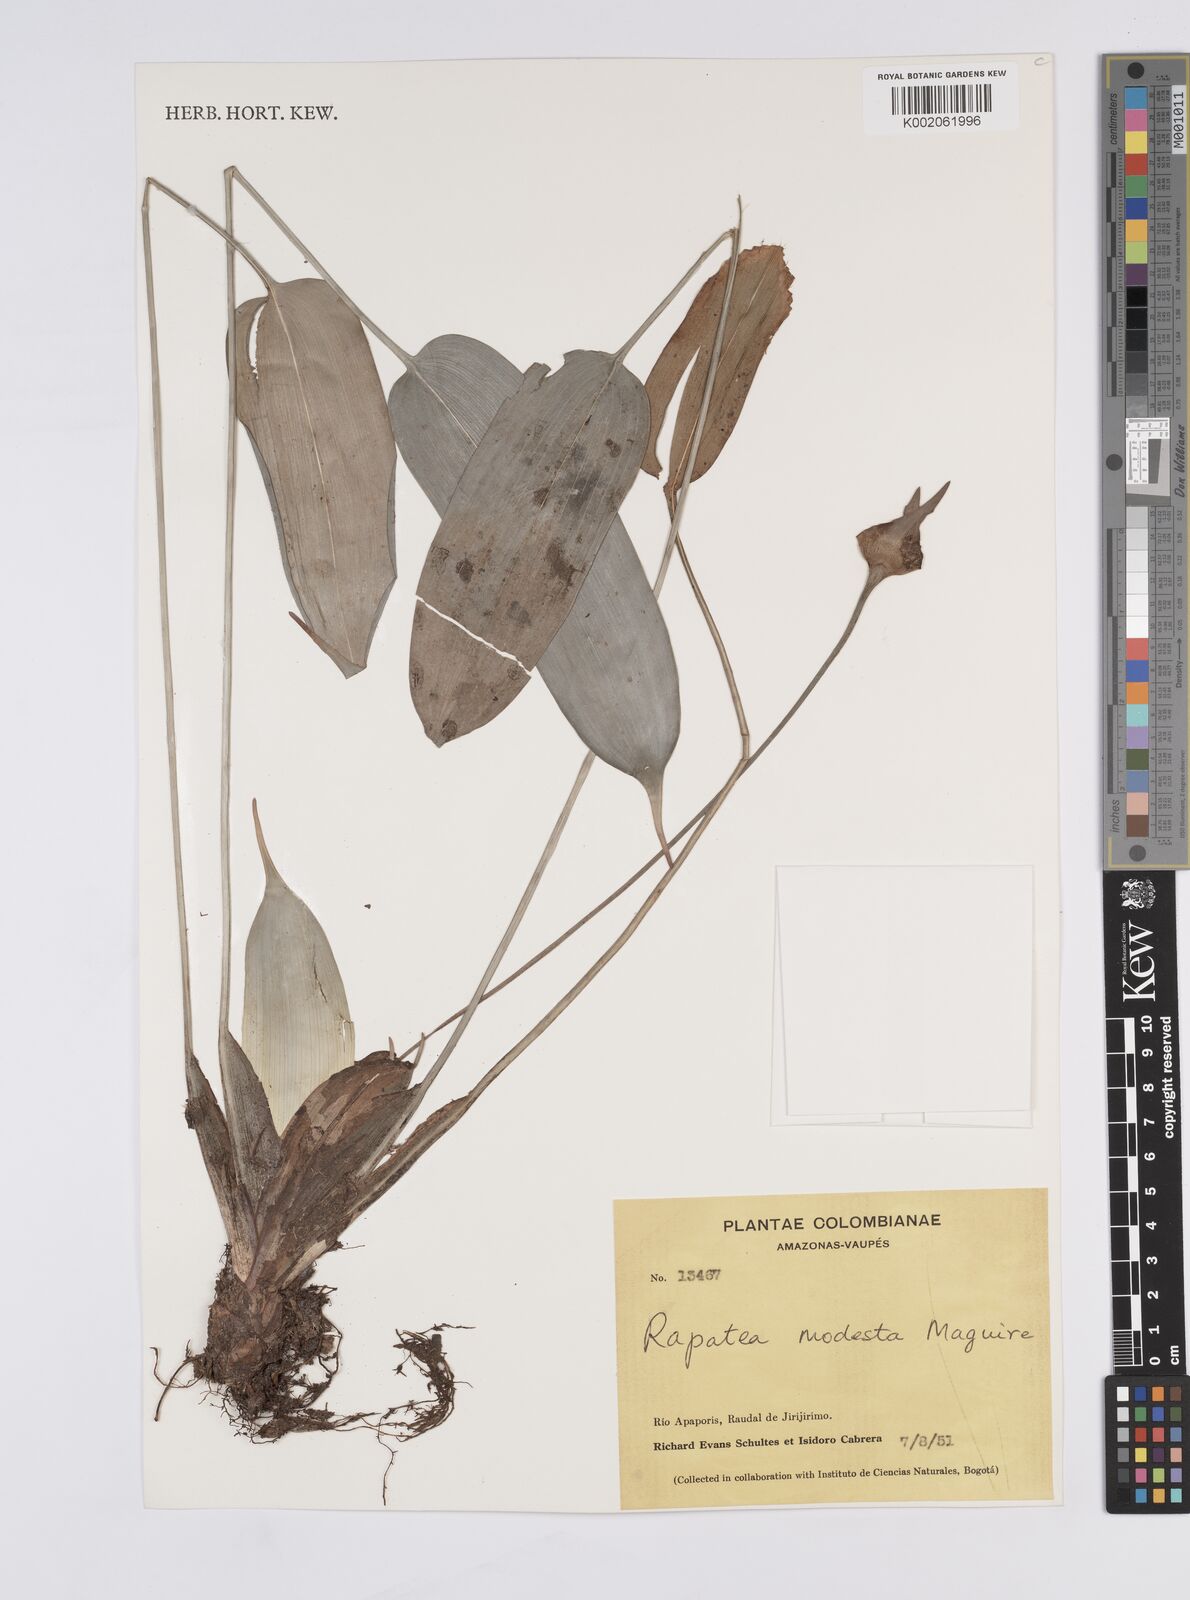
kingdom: Plantae
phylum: Tracheophyta
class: Liliopsida
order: Poales
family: Rapateaceae
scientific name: Rapateaceae
